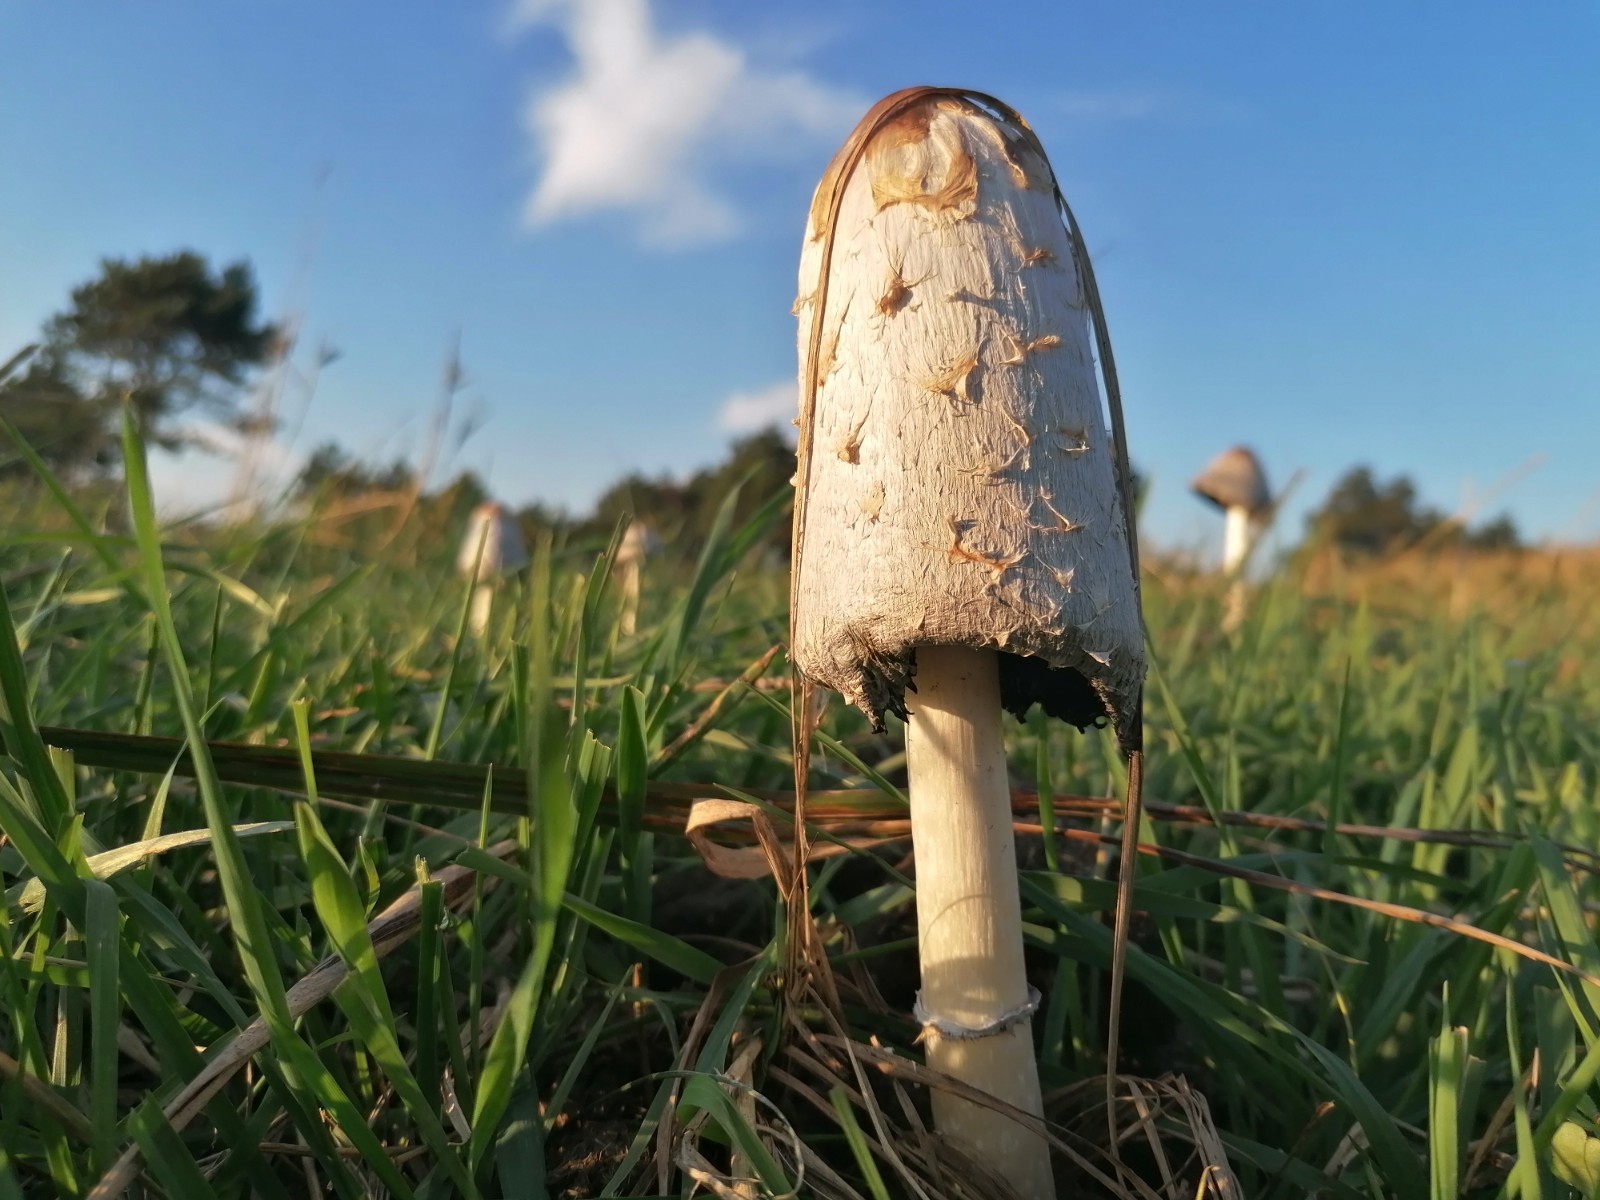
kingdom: Fungi
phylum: Basidiomycota
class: Agaricomycetes
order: Agaricales
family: Agaricaceae
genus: Coprinus
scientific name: Coprinus comatus
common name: stor parykhat
